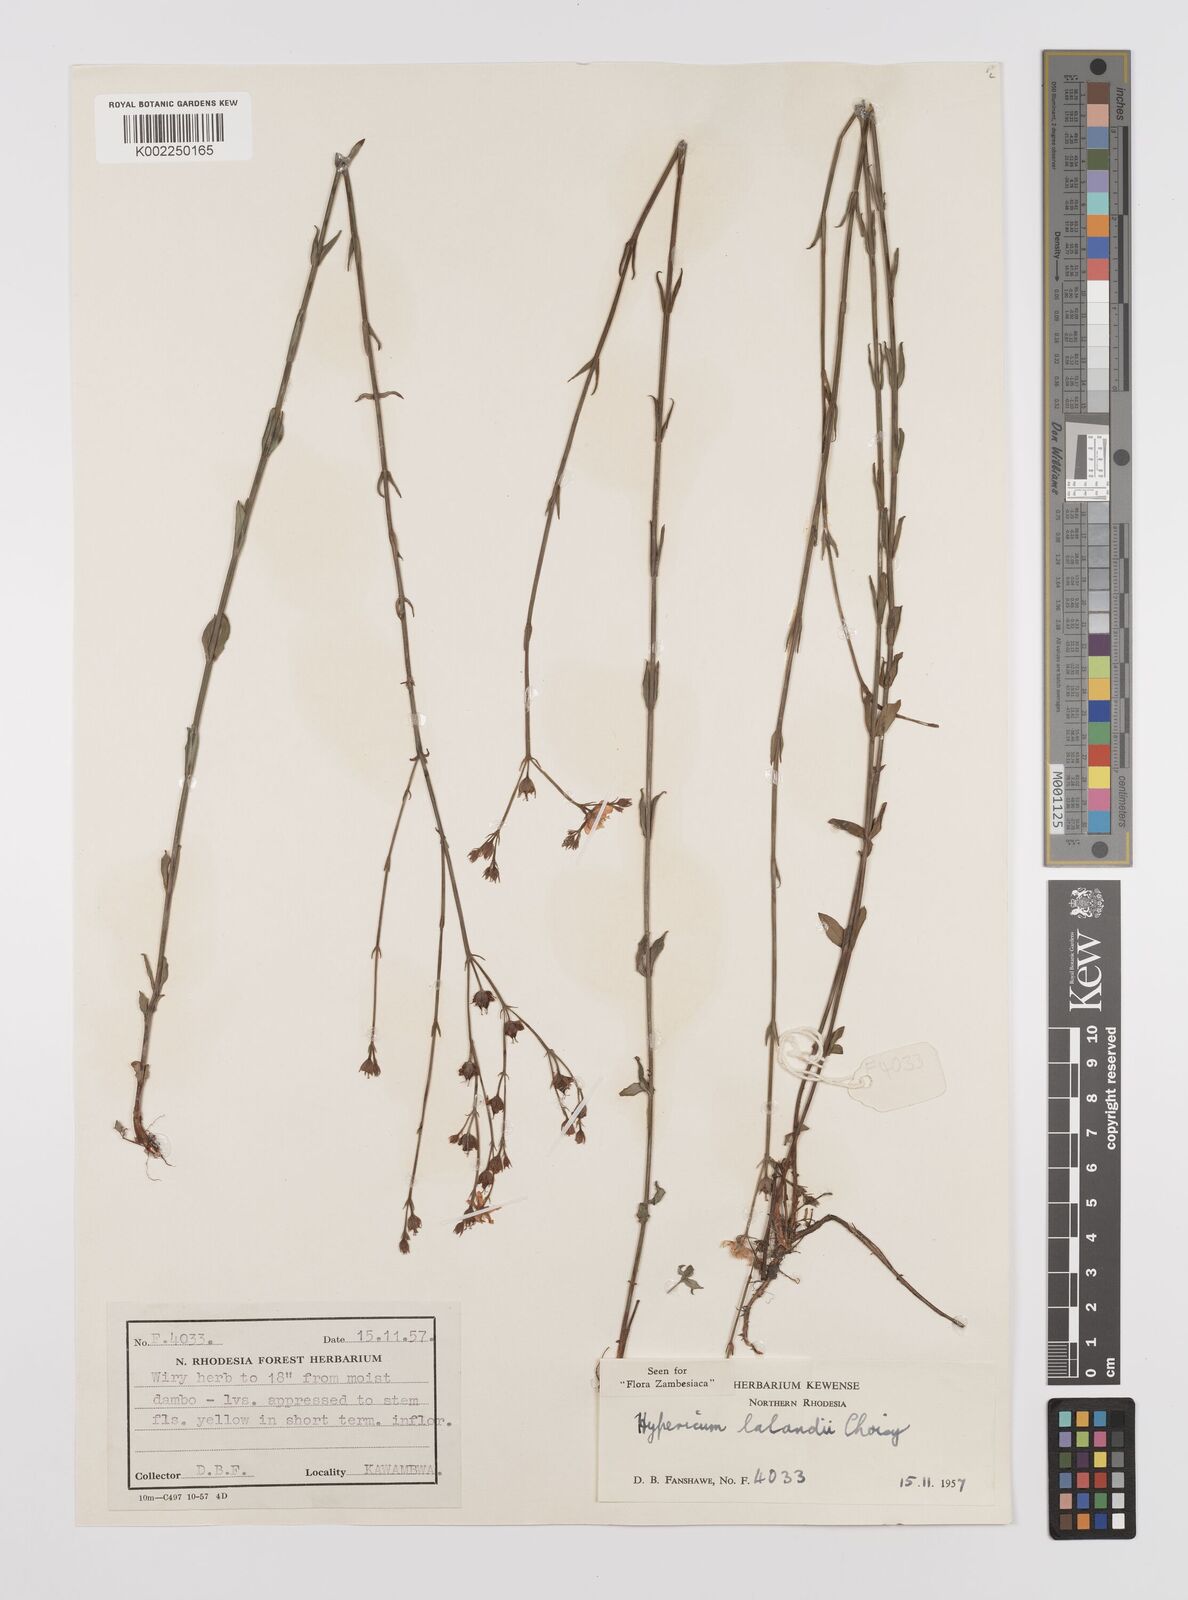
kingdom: Plantae
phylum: Tracheophyta
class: Magnoliopsida
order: Malpighiales
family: Hypericaceae
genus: Hypericum
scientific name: Hypericum lalandii
